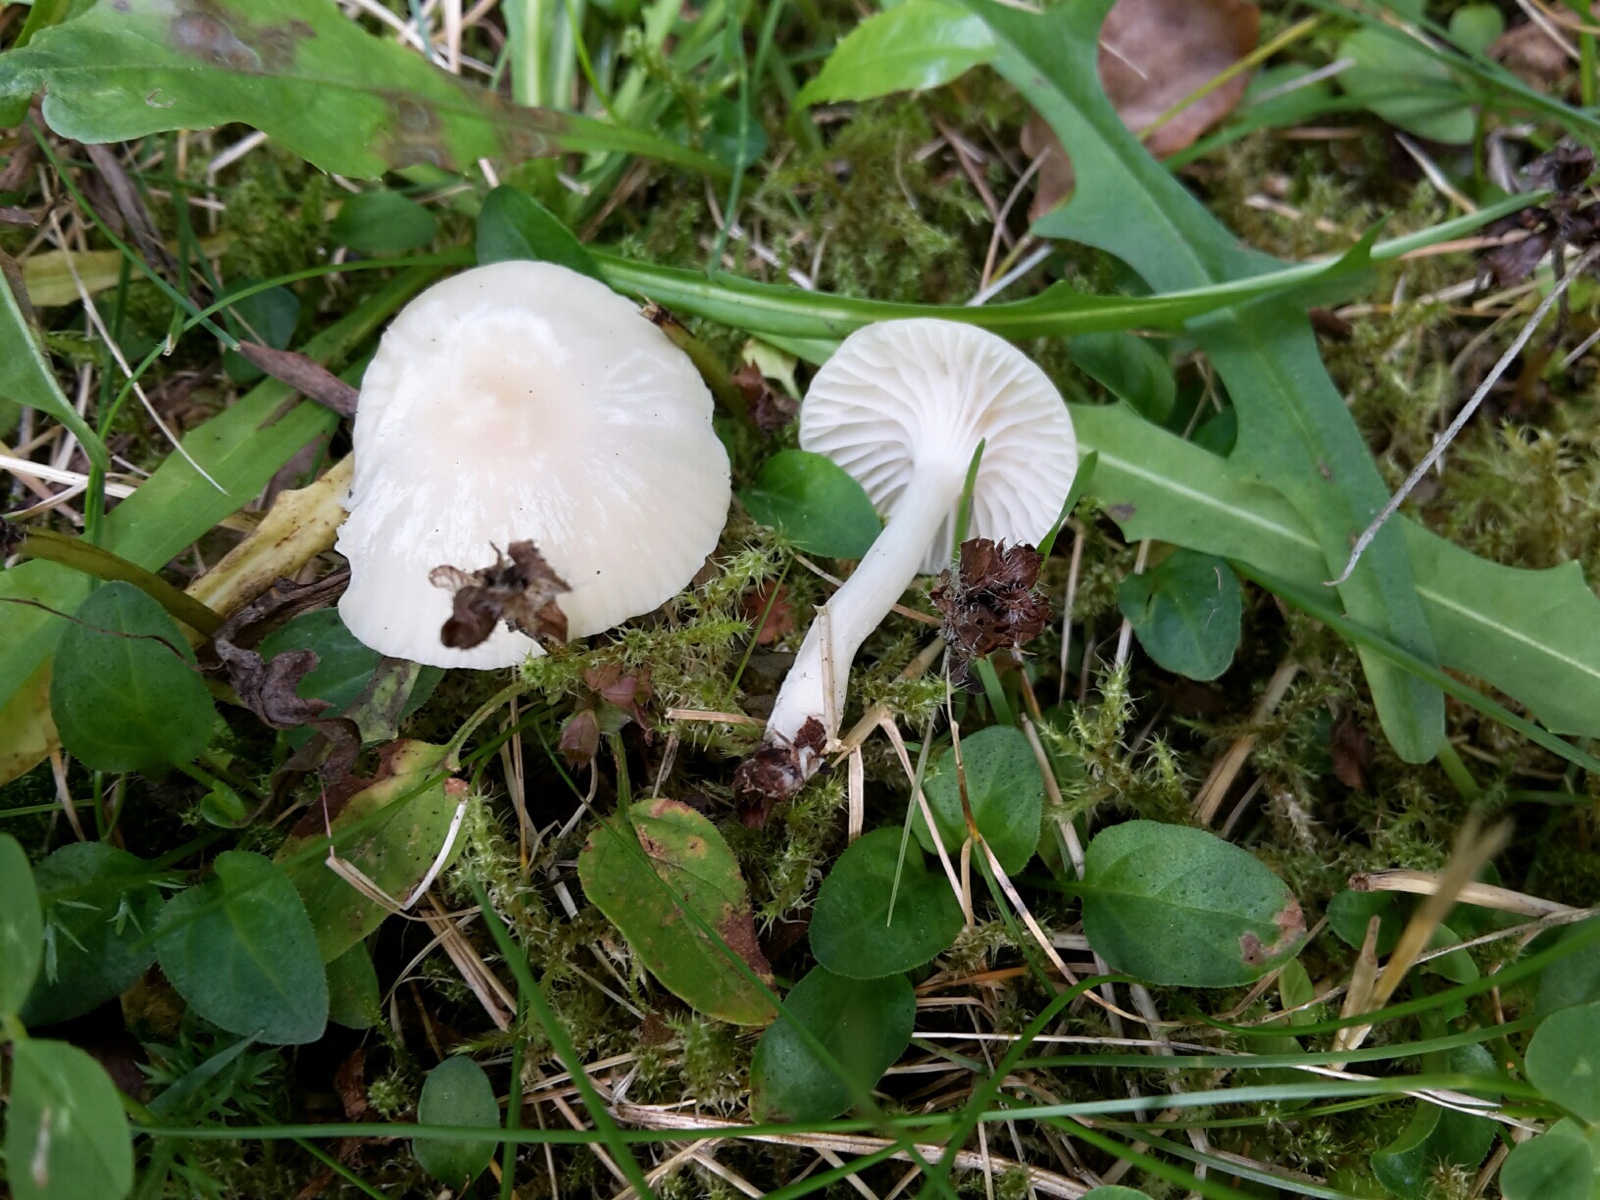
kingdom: Fungi
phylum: Basidiomycota
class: Agaricomycetes
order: Agaricales
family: Hygrophoraceae
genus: Cuphophyllus
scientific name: Cuphophyllus virgineus
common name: snehvid vokshat
